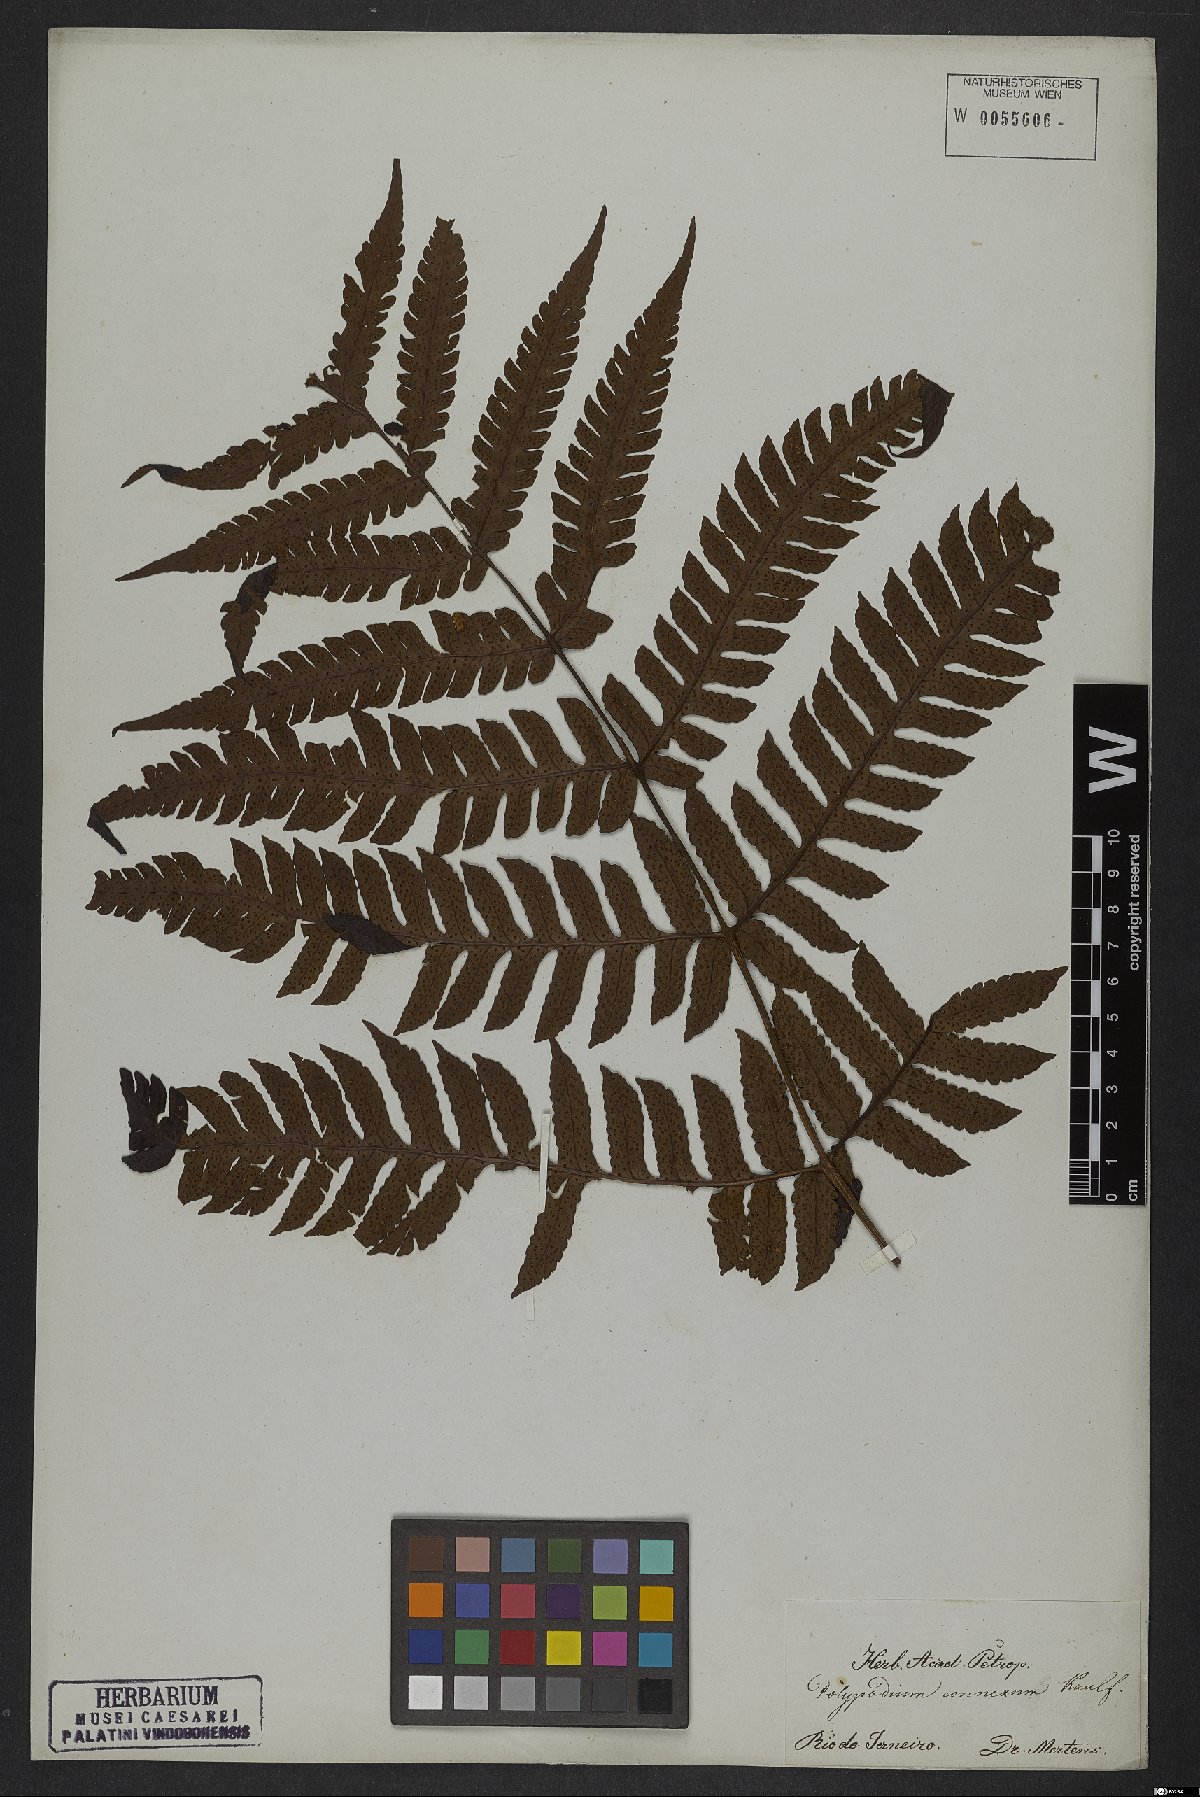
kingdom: Plantae
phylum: Tracheophyta
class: Polypodiopsida
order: Polypodiales
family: Dryopteridaceae
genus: Megalastrum
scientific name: Megalastrum connexum
